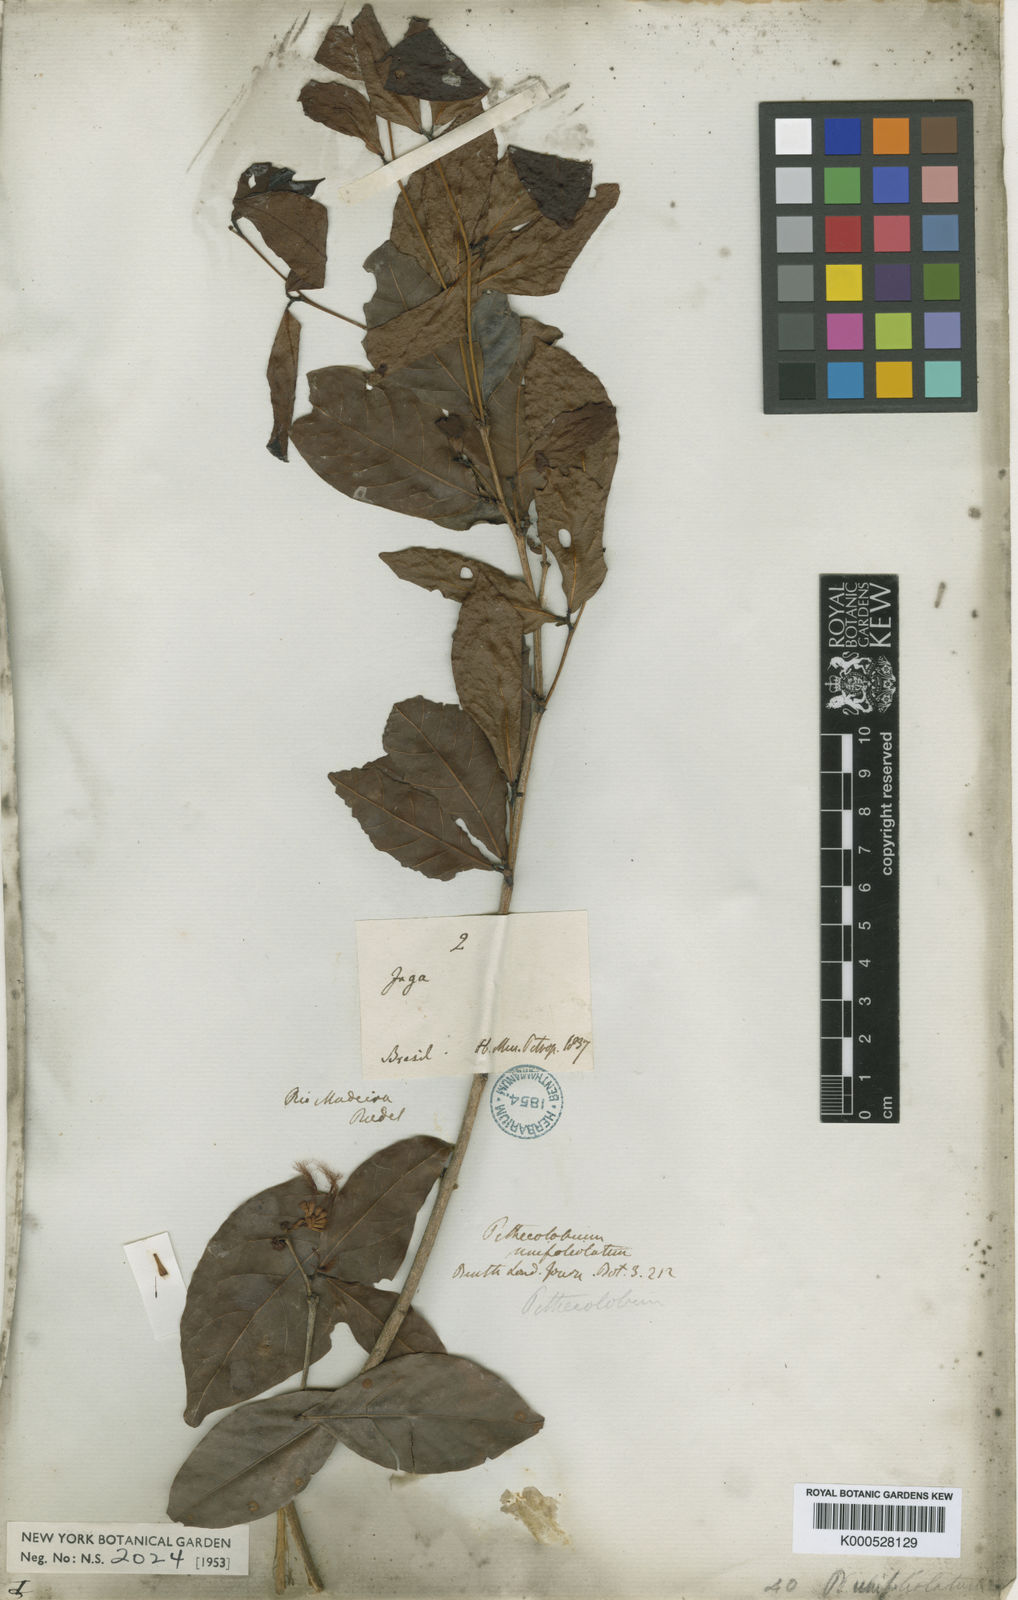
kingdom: Plantae
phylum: Tracheophyta
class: Magnoliopsida
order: Fabales
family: Fabaceae
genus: Zygia
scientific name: Zygia unifoliolata
